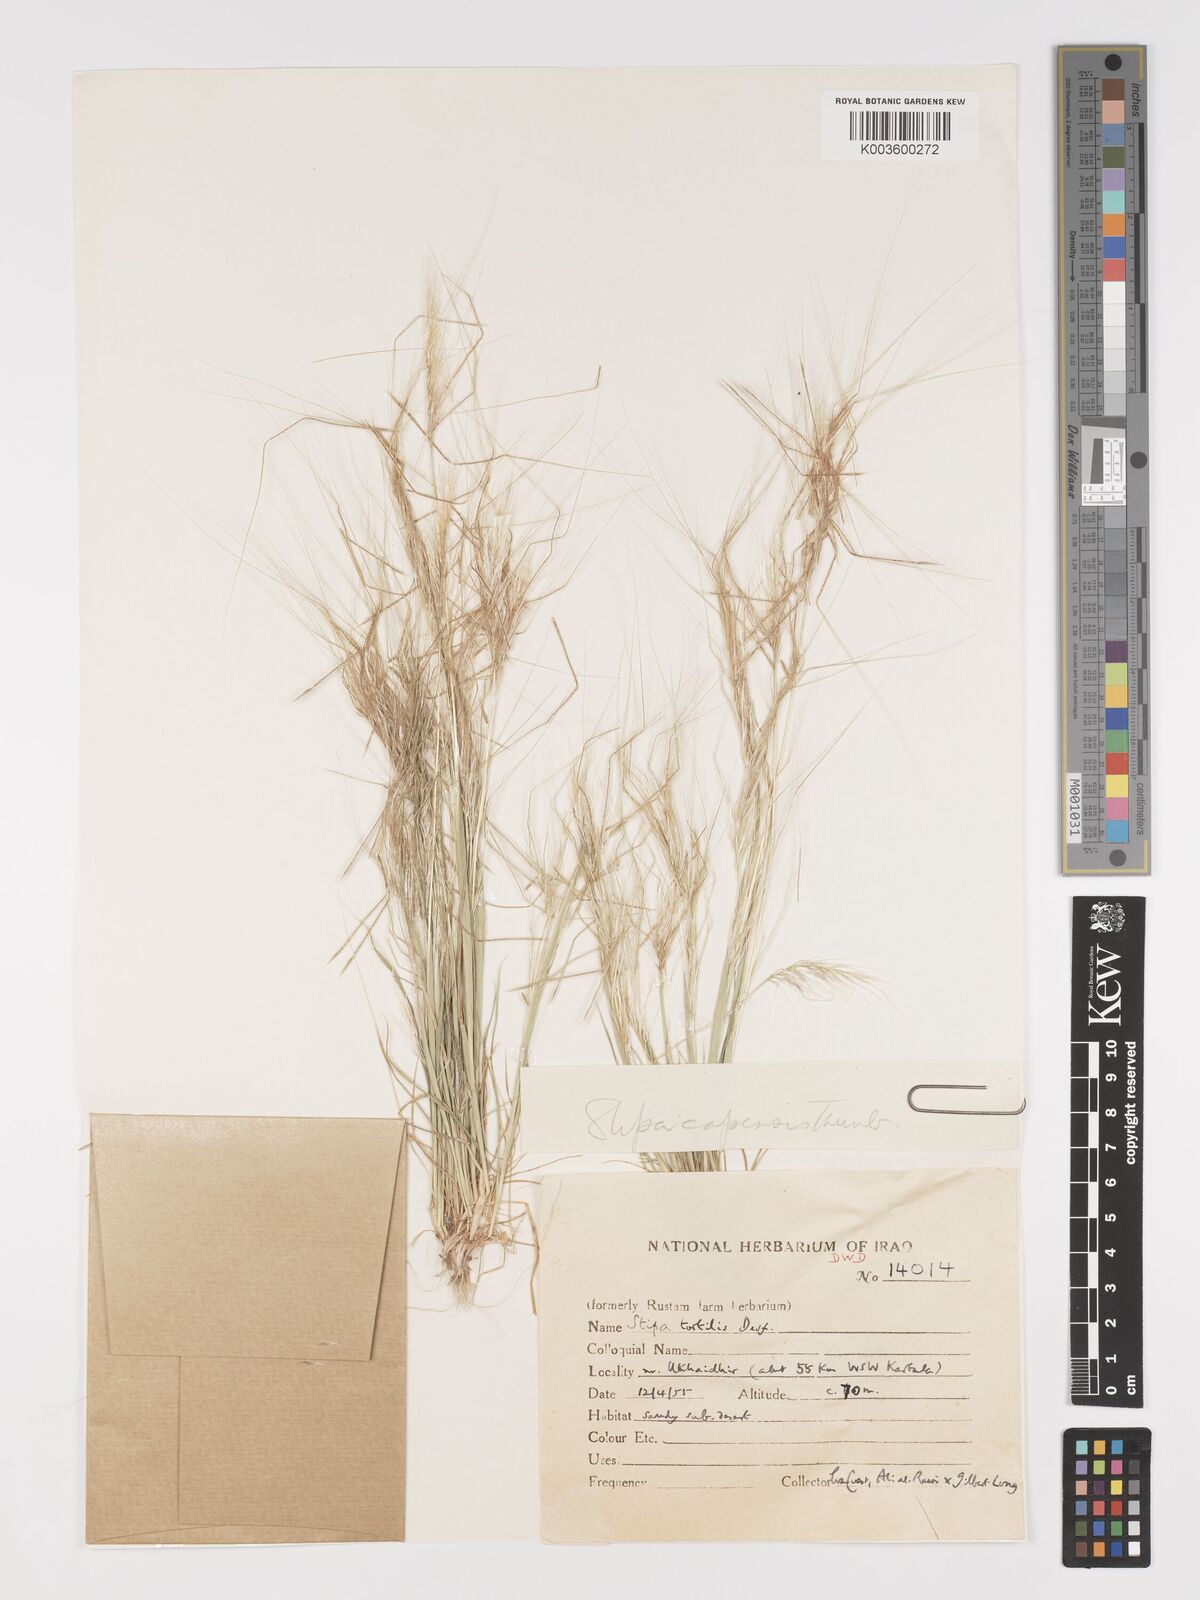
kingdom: Plantae
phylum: Tracheophyta
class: Liliopsida
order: Poales
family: Poaceae
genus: Stipellula
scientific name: Stipellula capensis
